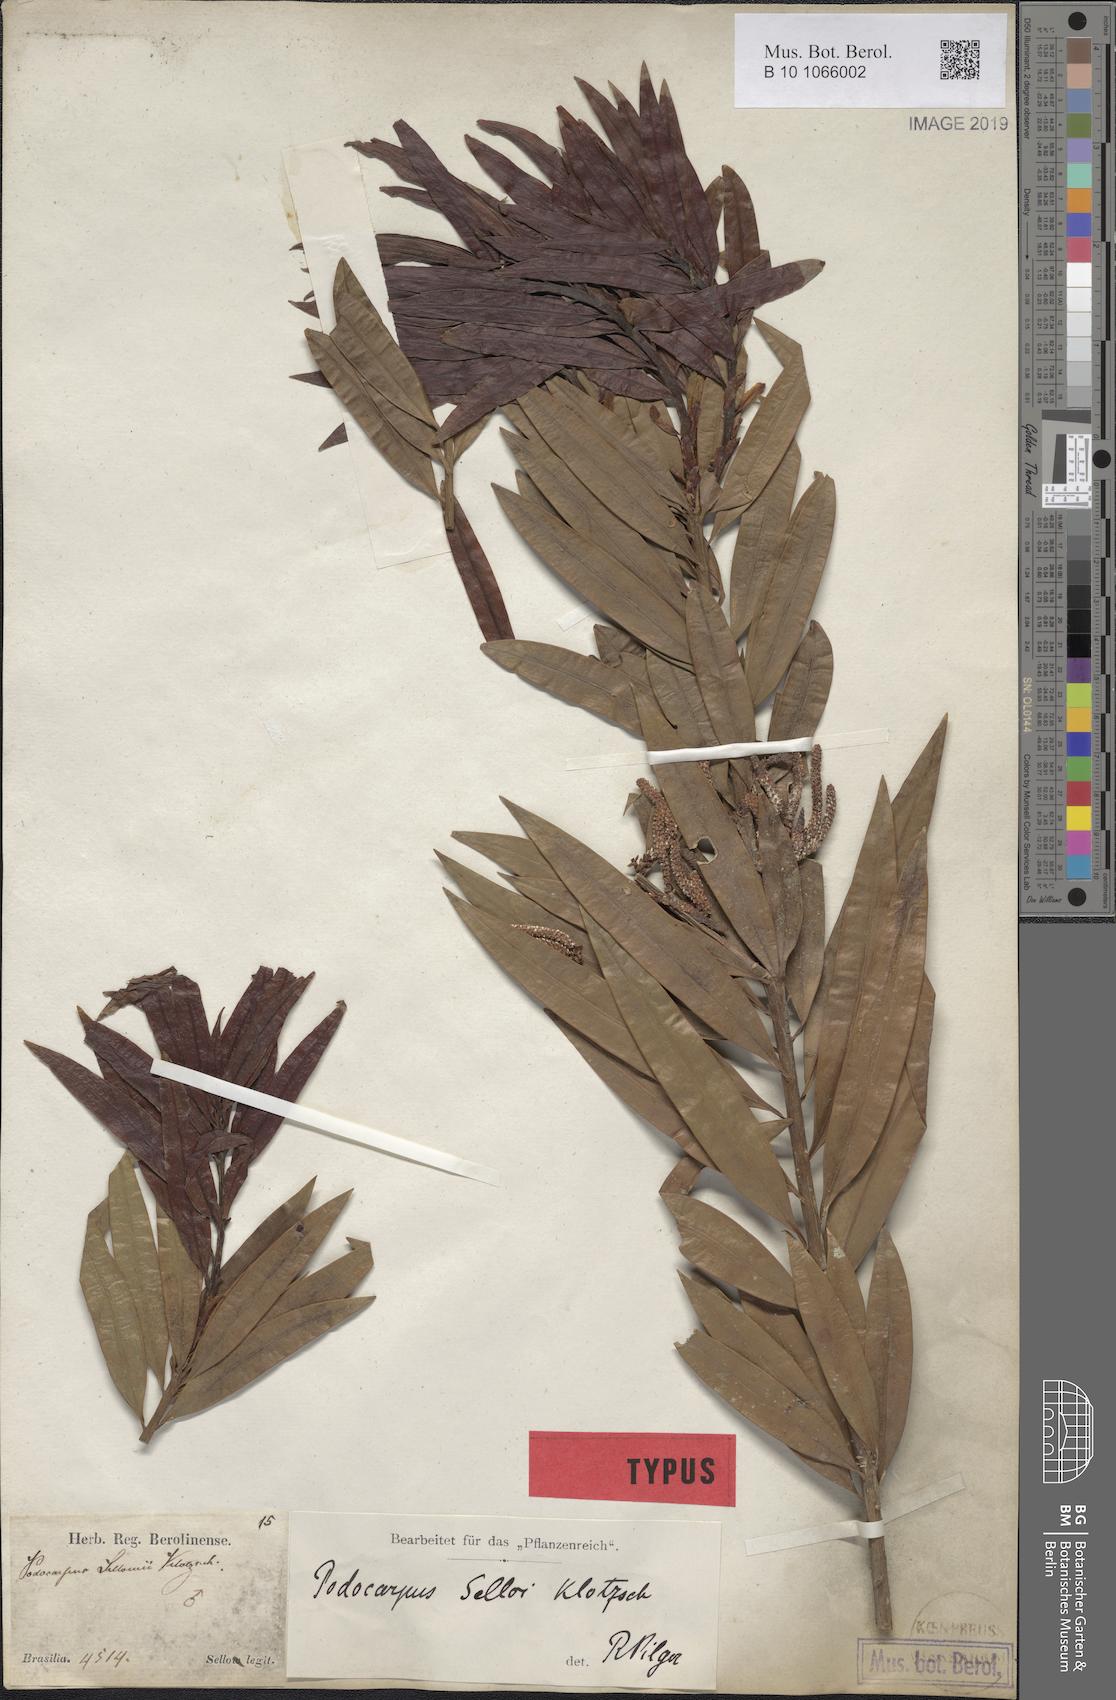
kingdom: Plantae
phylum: Tracheophyta
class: Pinopsida
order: Pinales
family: Podocarpaceae
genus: Podocarpus
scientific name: Podocarpus sellowii
